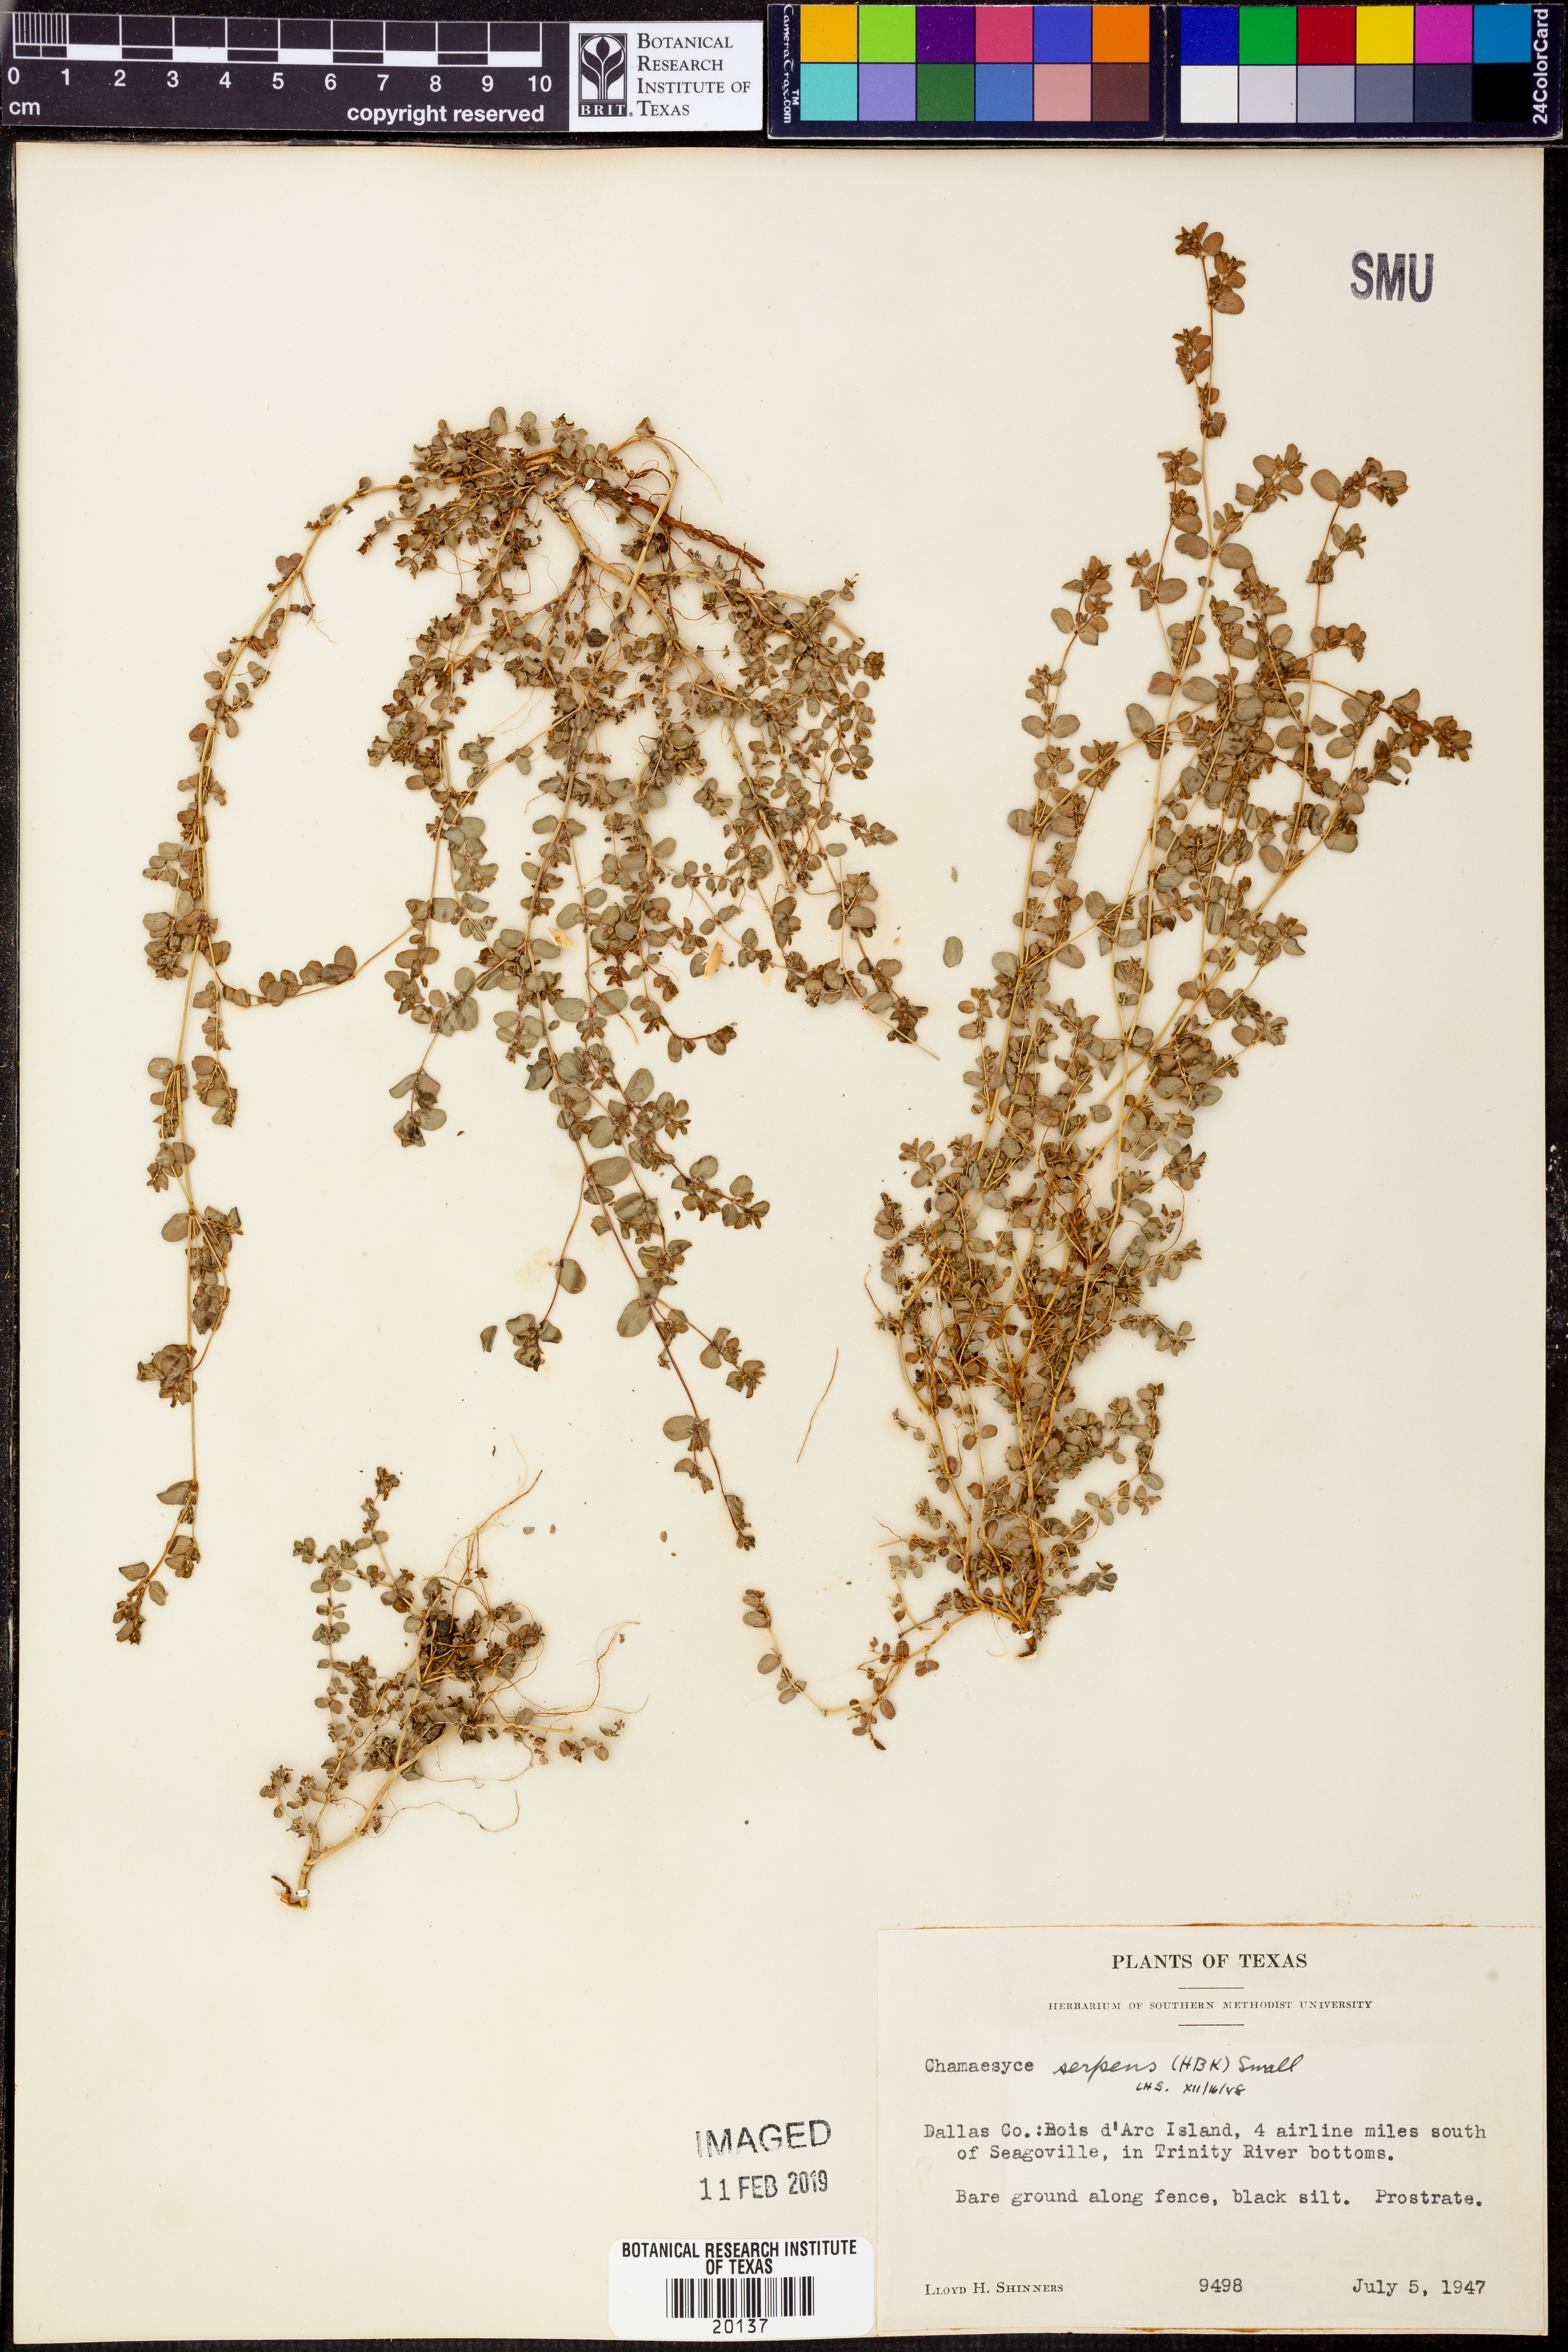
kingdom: Plantae
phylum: Tracheophyta
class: Magnoliopsida
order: Malpighiales
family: Euphorbiaceae
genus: Euphorbia
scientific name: Euphorbia serpens
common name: Matted sandmat
